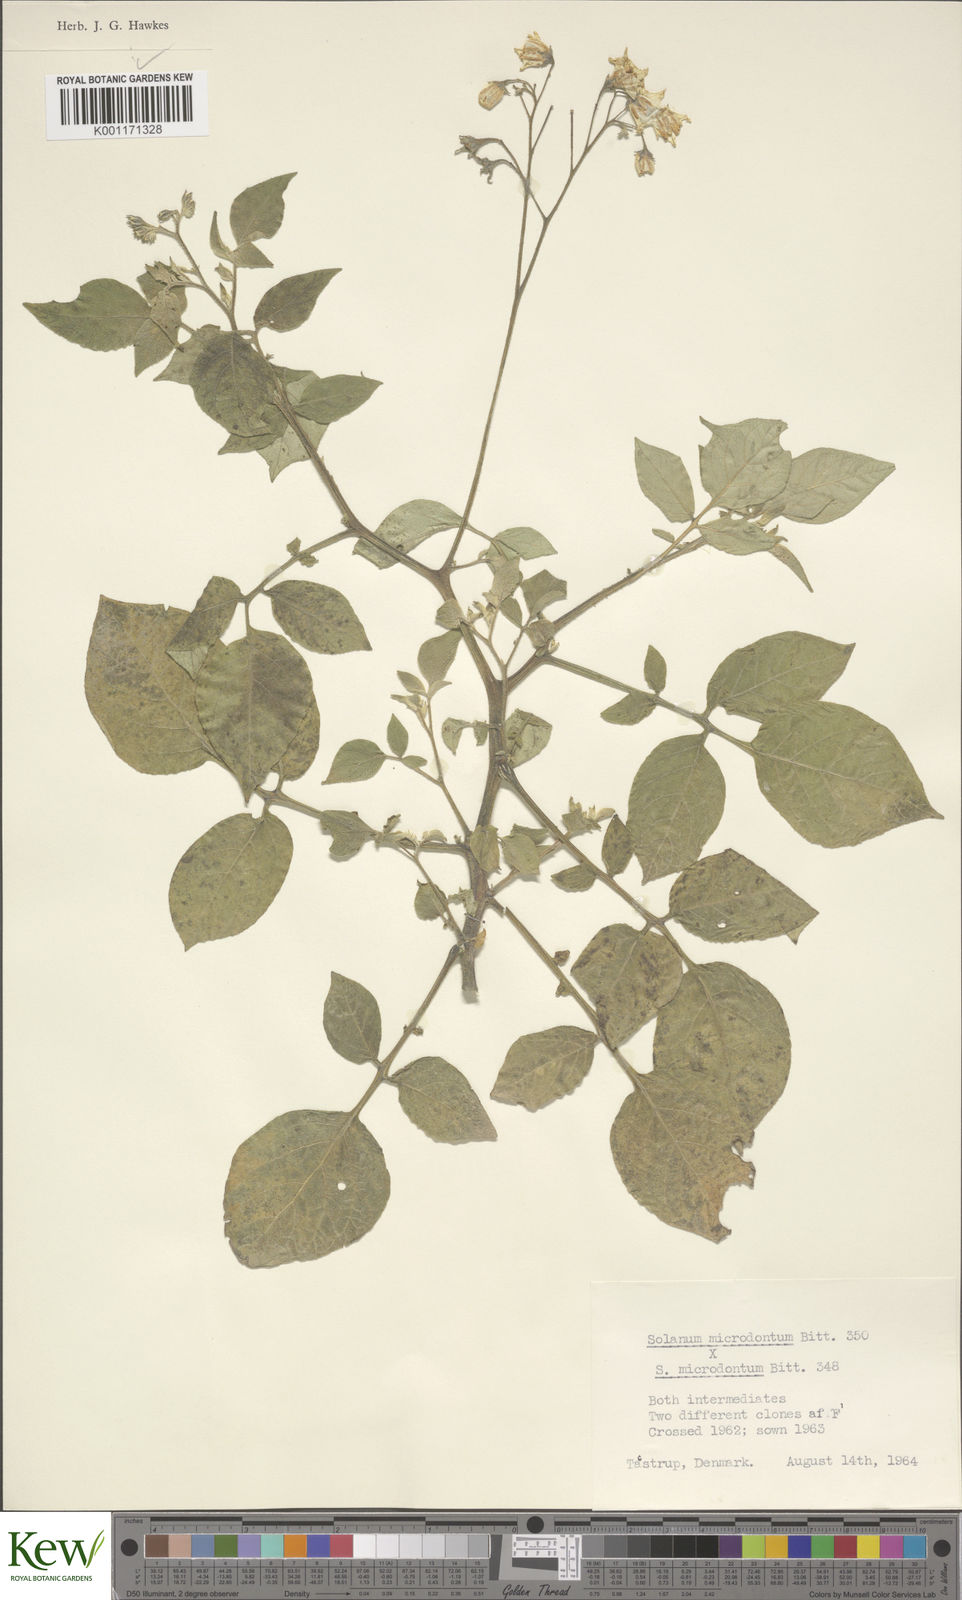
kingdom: Plantae
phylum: Tracheophyta
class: Magnoliopsida
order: Solanales
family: Solanaceae
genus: Solanum
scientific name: Solanum microdontum
